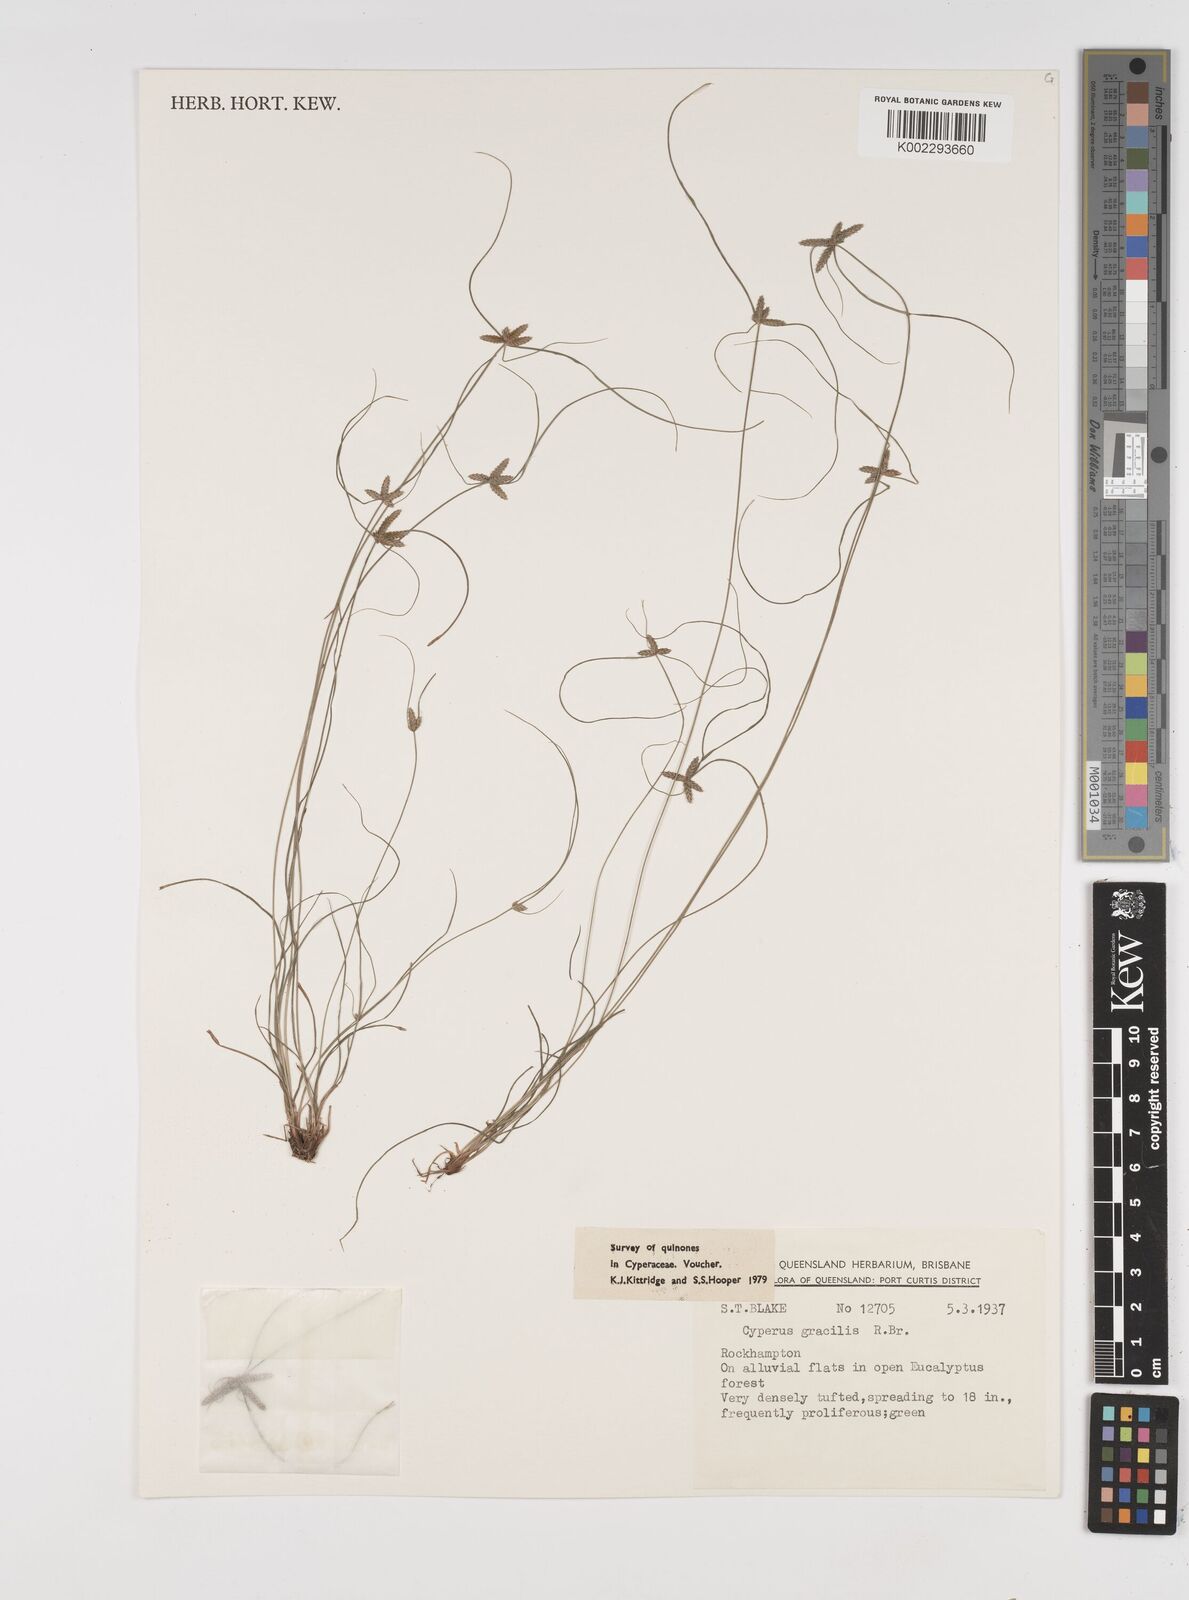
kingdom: Plantae
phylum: Tracheophyta
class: Liliopsida
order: Poales
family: Cyperaceae
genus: Cyperus
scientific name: Cyperus gracilis
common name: Slimjim flatsedge
